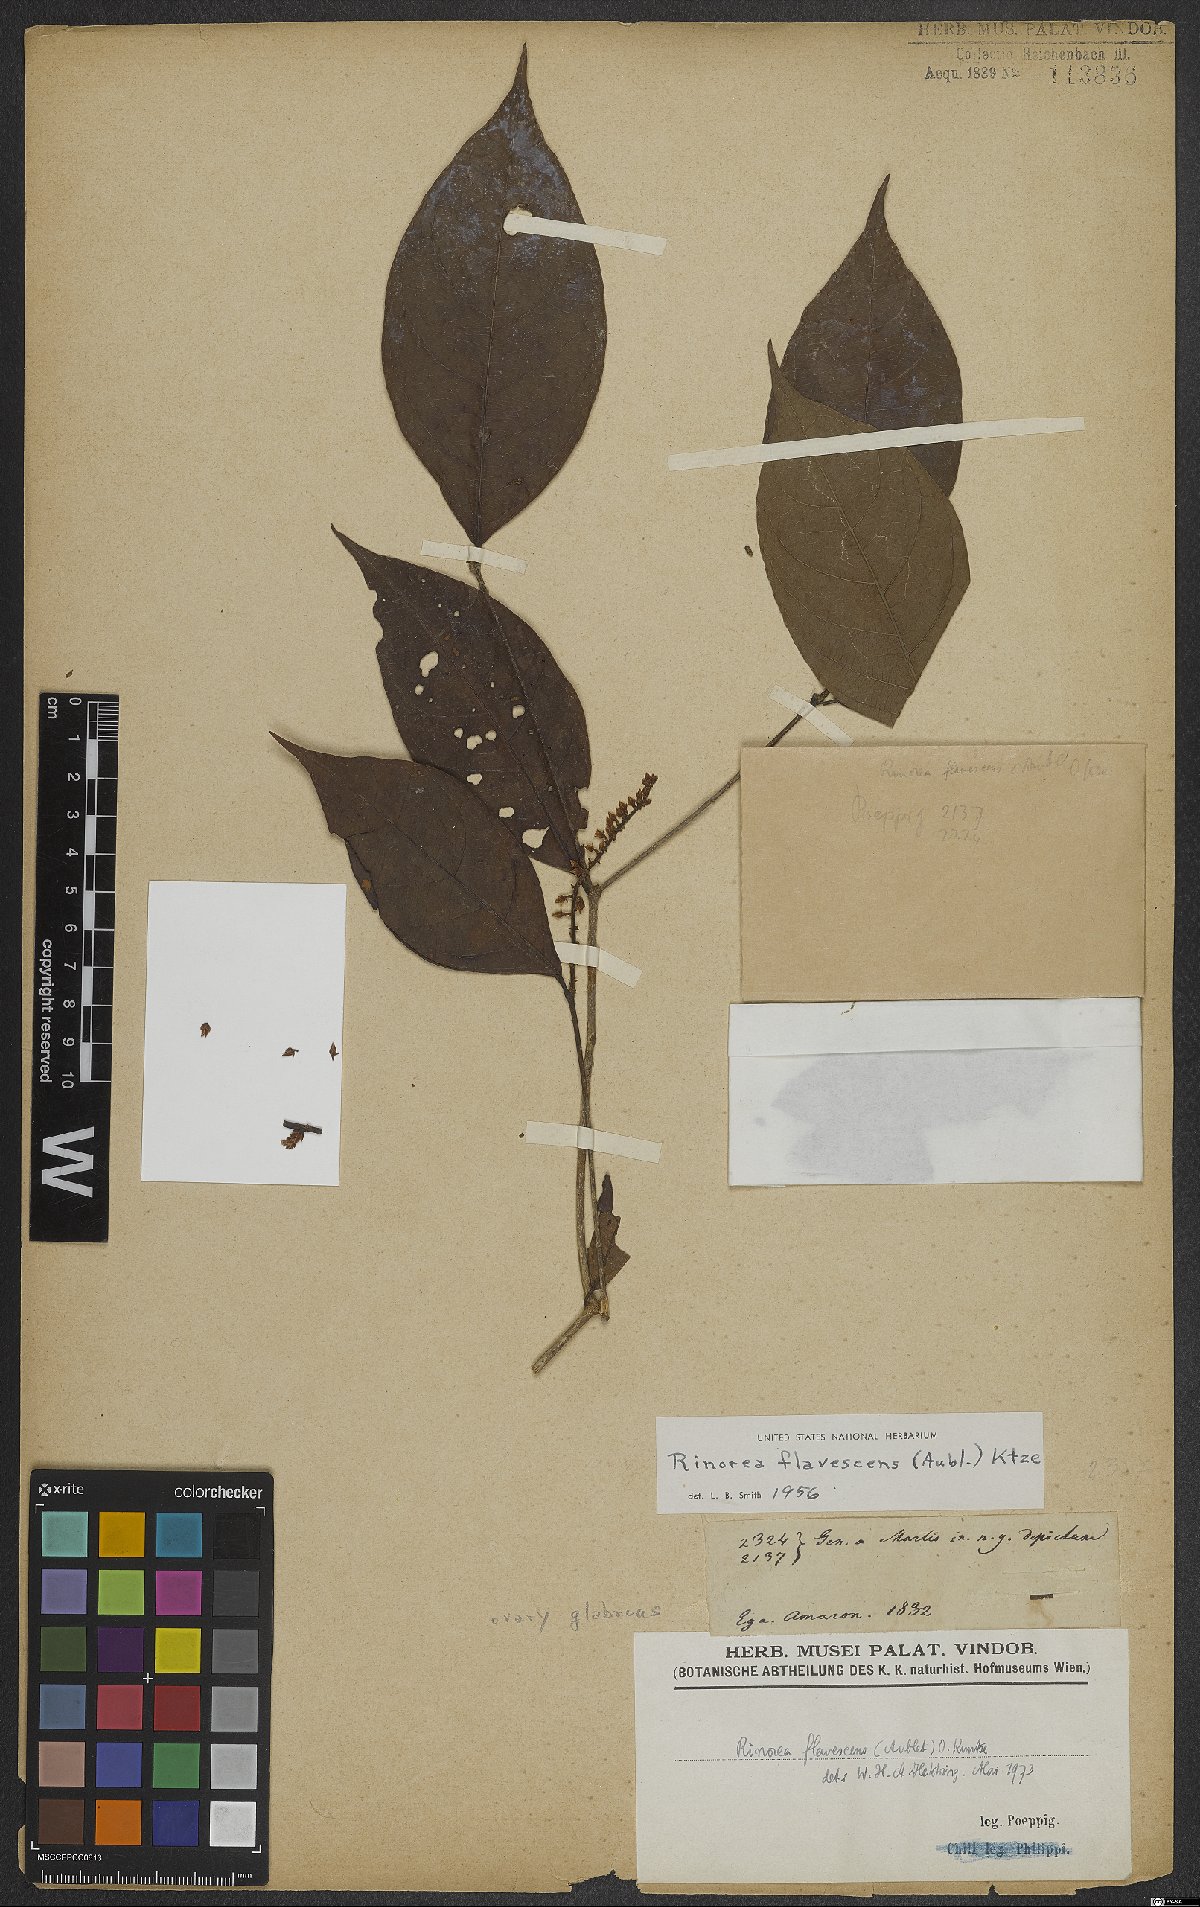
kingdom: Plantae
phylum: Tracheophyta
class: Magnoliopsida
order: Malpighiales
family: Violaceae
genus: Rinorea
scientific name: Rinorea flavescens
